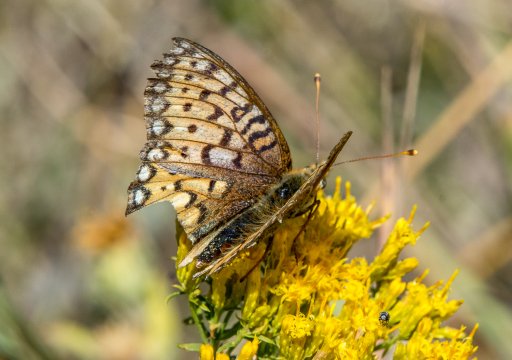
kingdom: Animalia
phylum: Arthropoda
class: Insecta
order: Lepidoptera
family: Nymphalidae
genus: Speyeria
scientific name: Speyeria mormonia
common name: Mormon Fritillary
